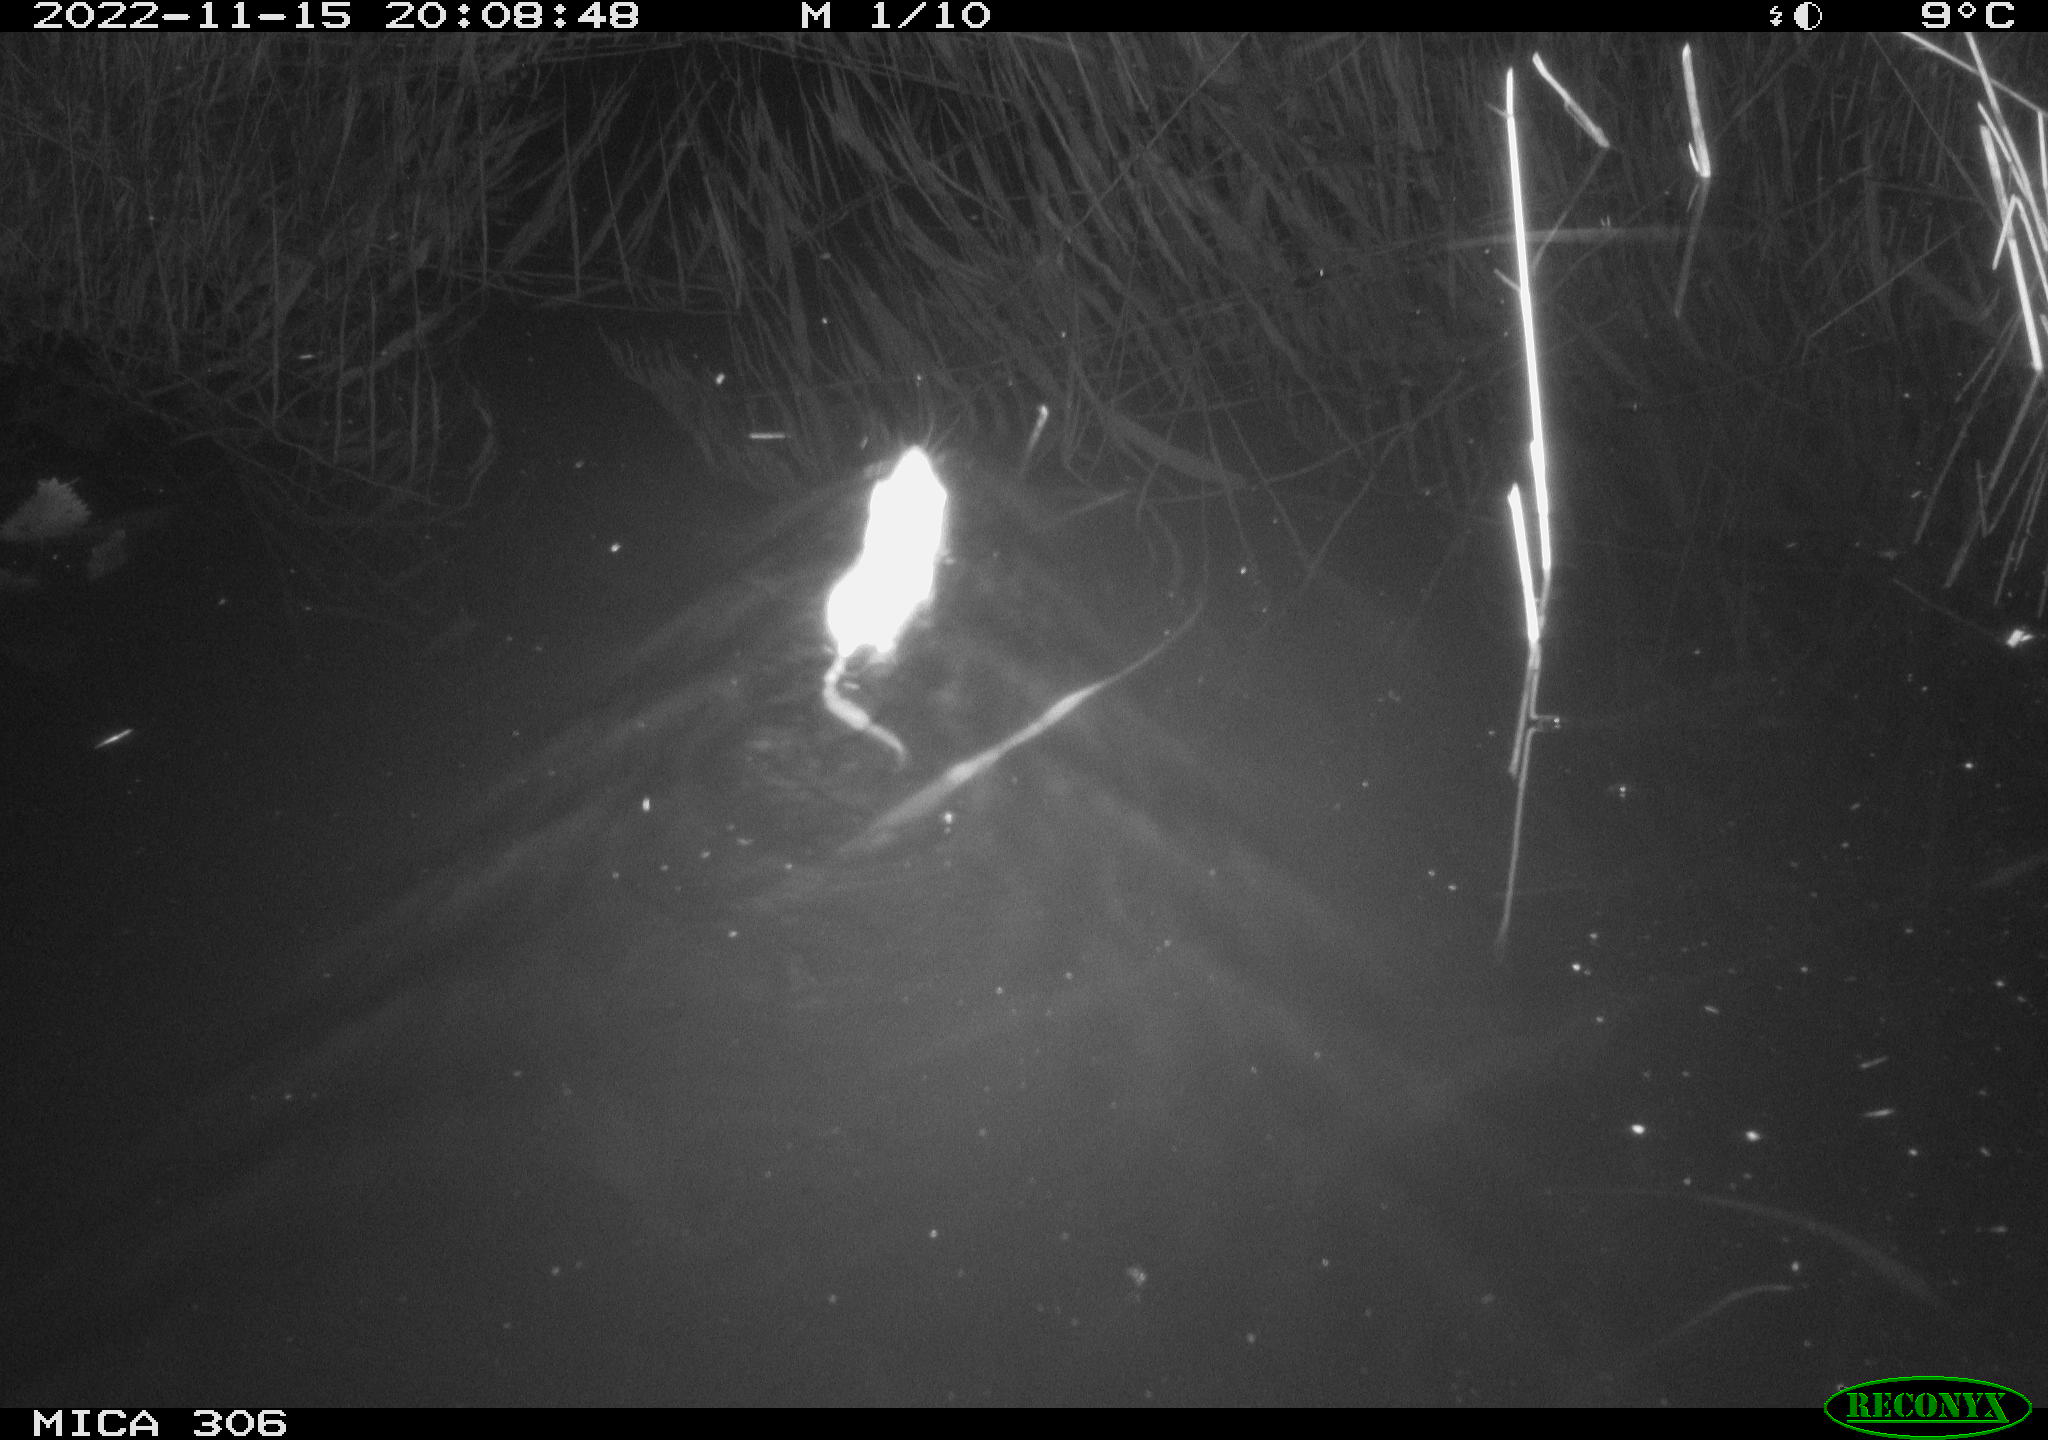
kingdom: Animalia
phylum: Chordata
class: Mammalia
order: Rodentia
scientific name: Rodentia
